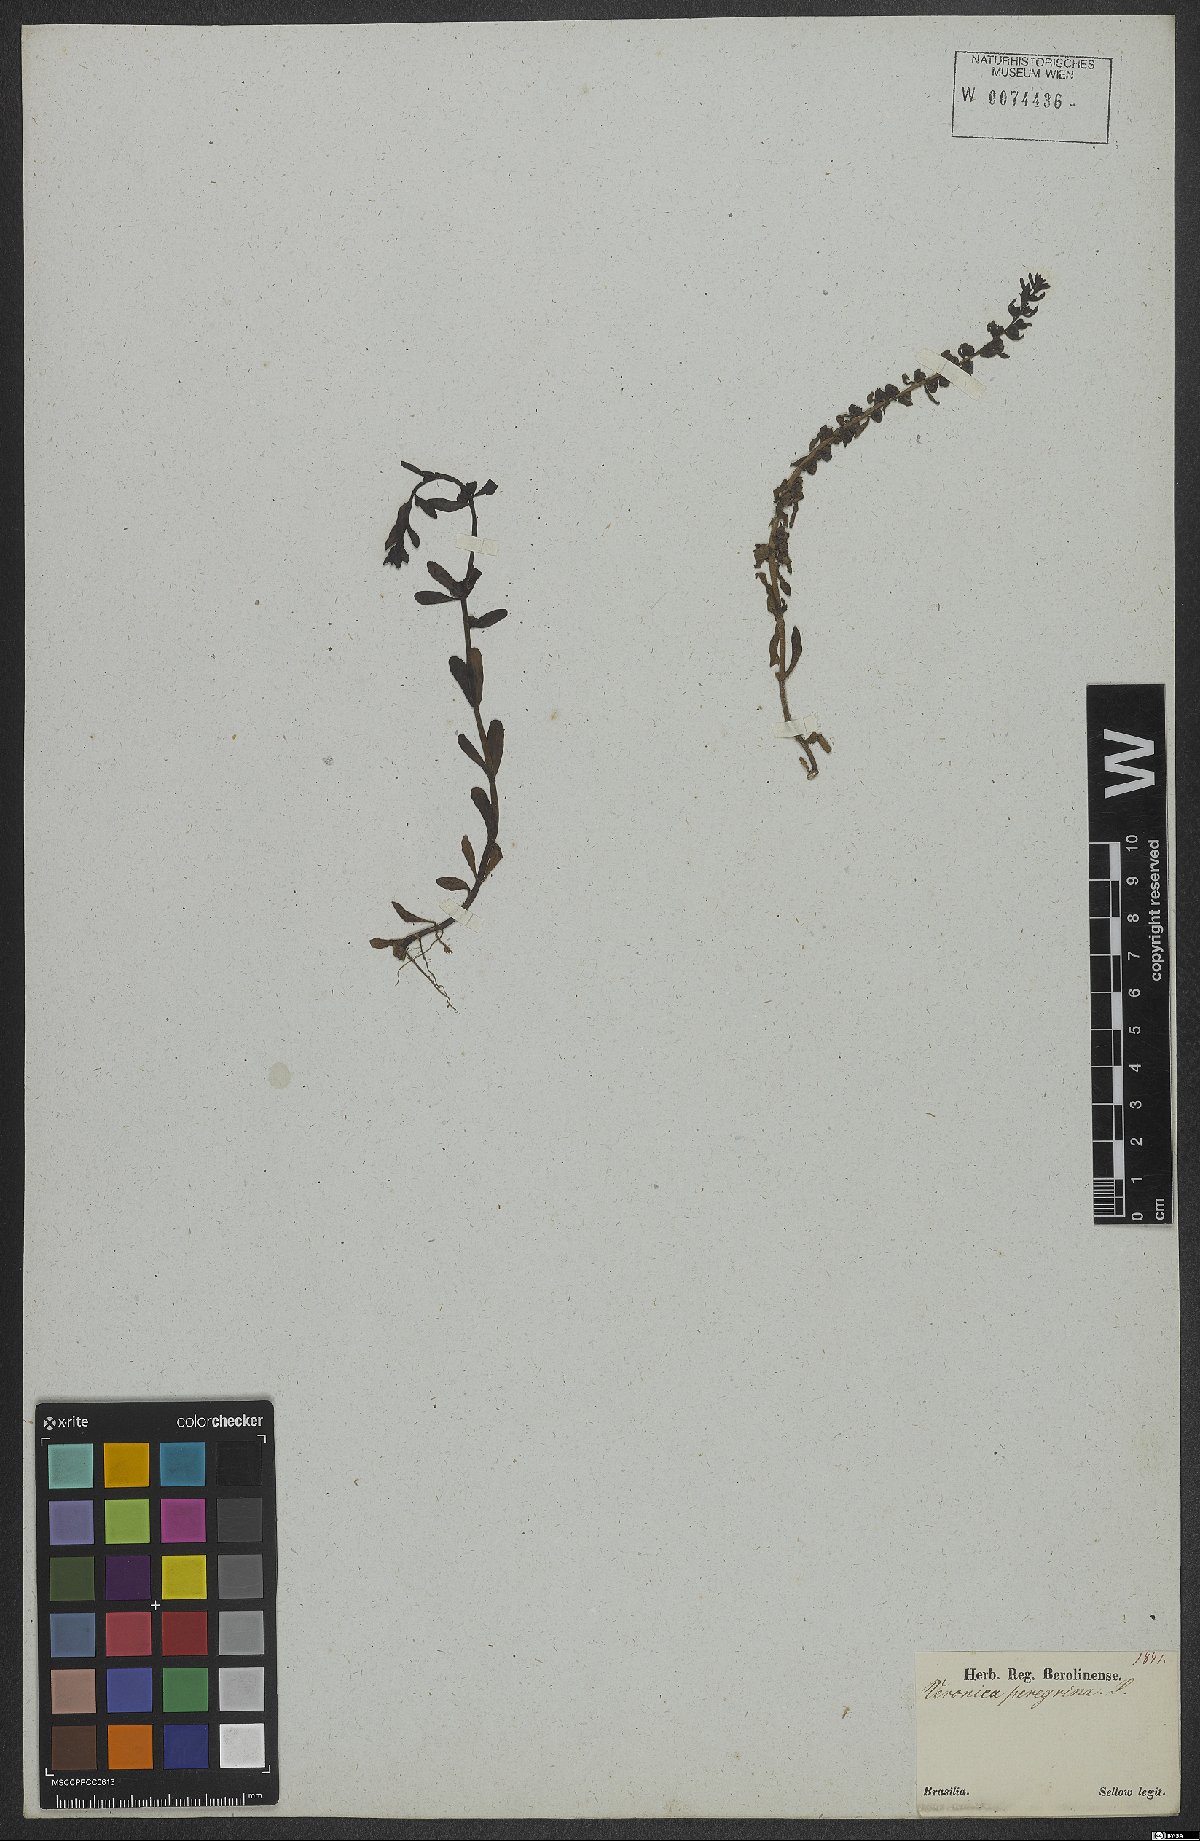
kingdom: Plantae
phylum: Tracheophyta
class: Magnoliopsida
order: Lamiales
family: Plantaginaceae
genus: Veronica
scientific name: Veronica peregrina
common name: Neckweed
